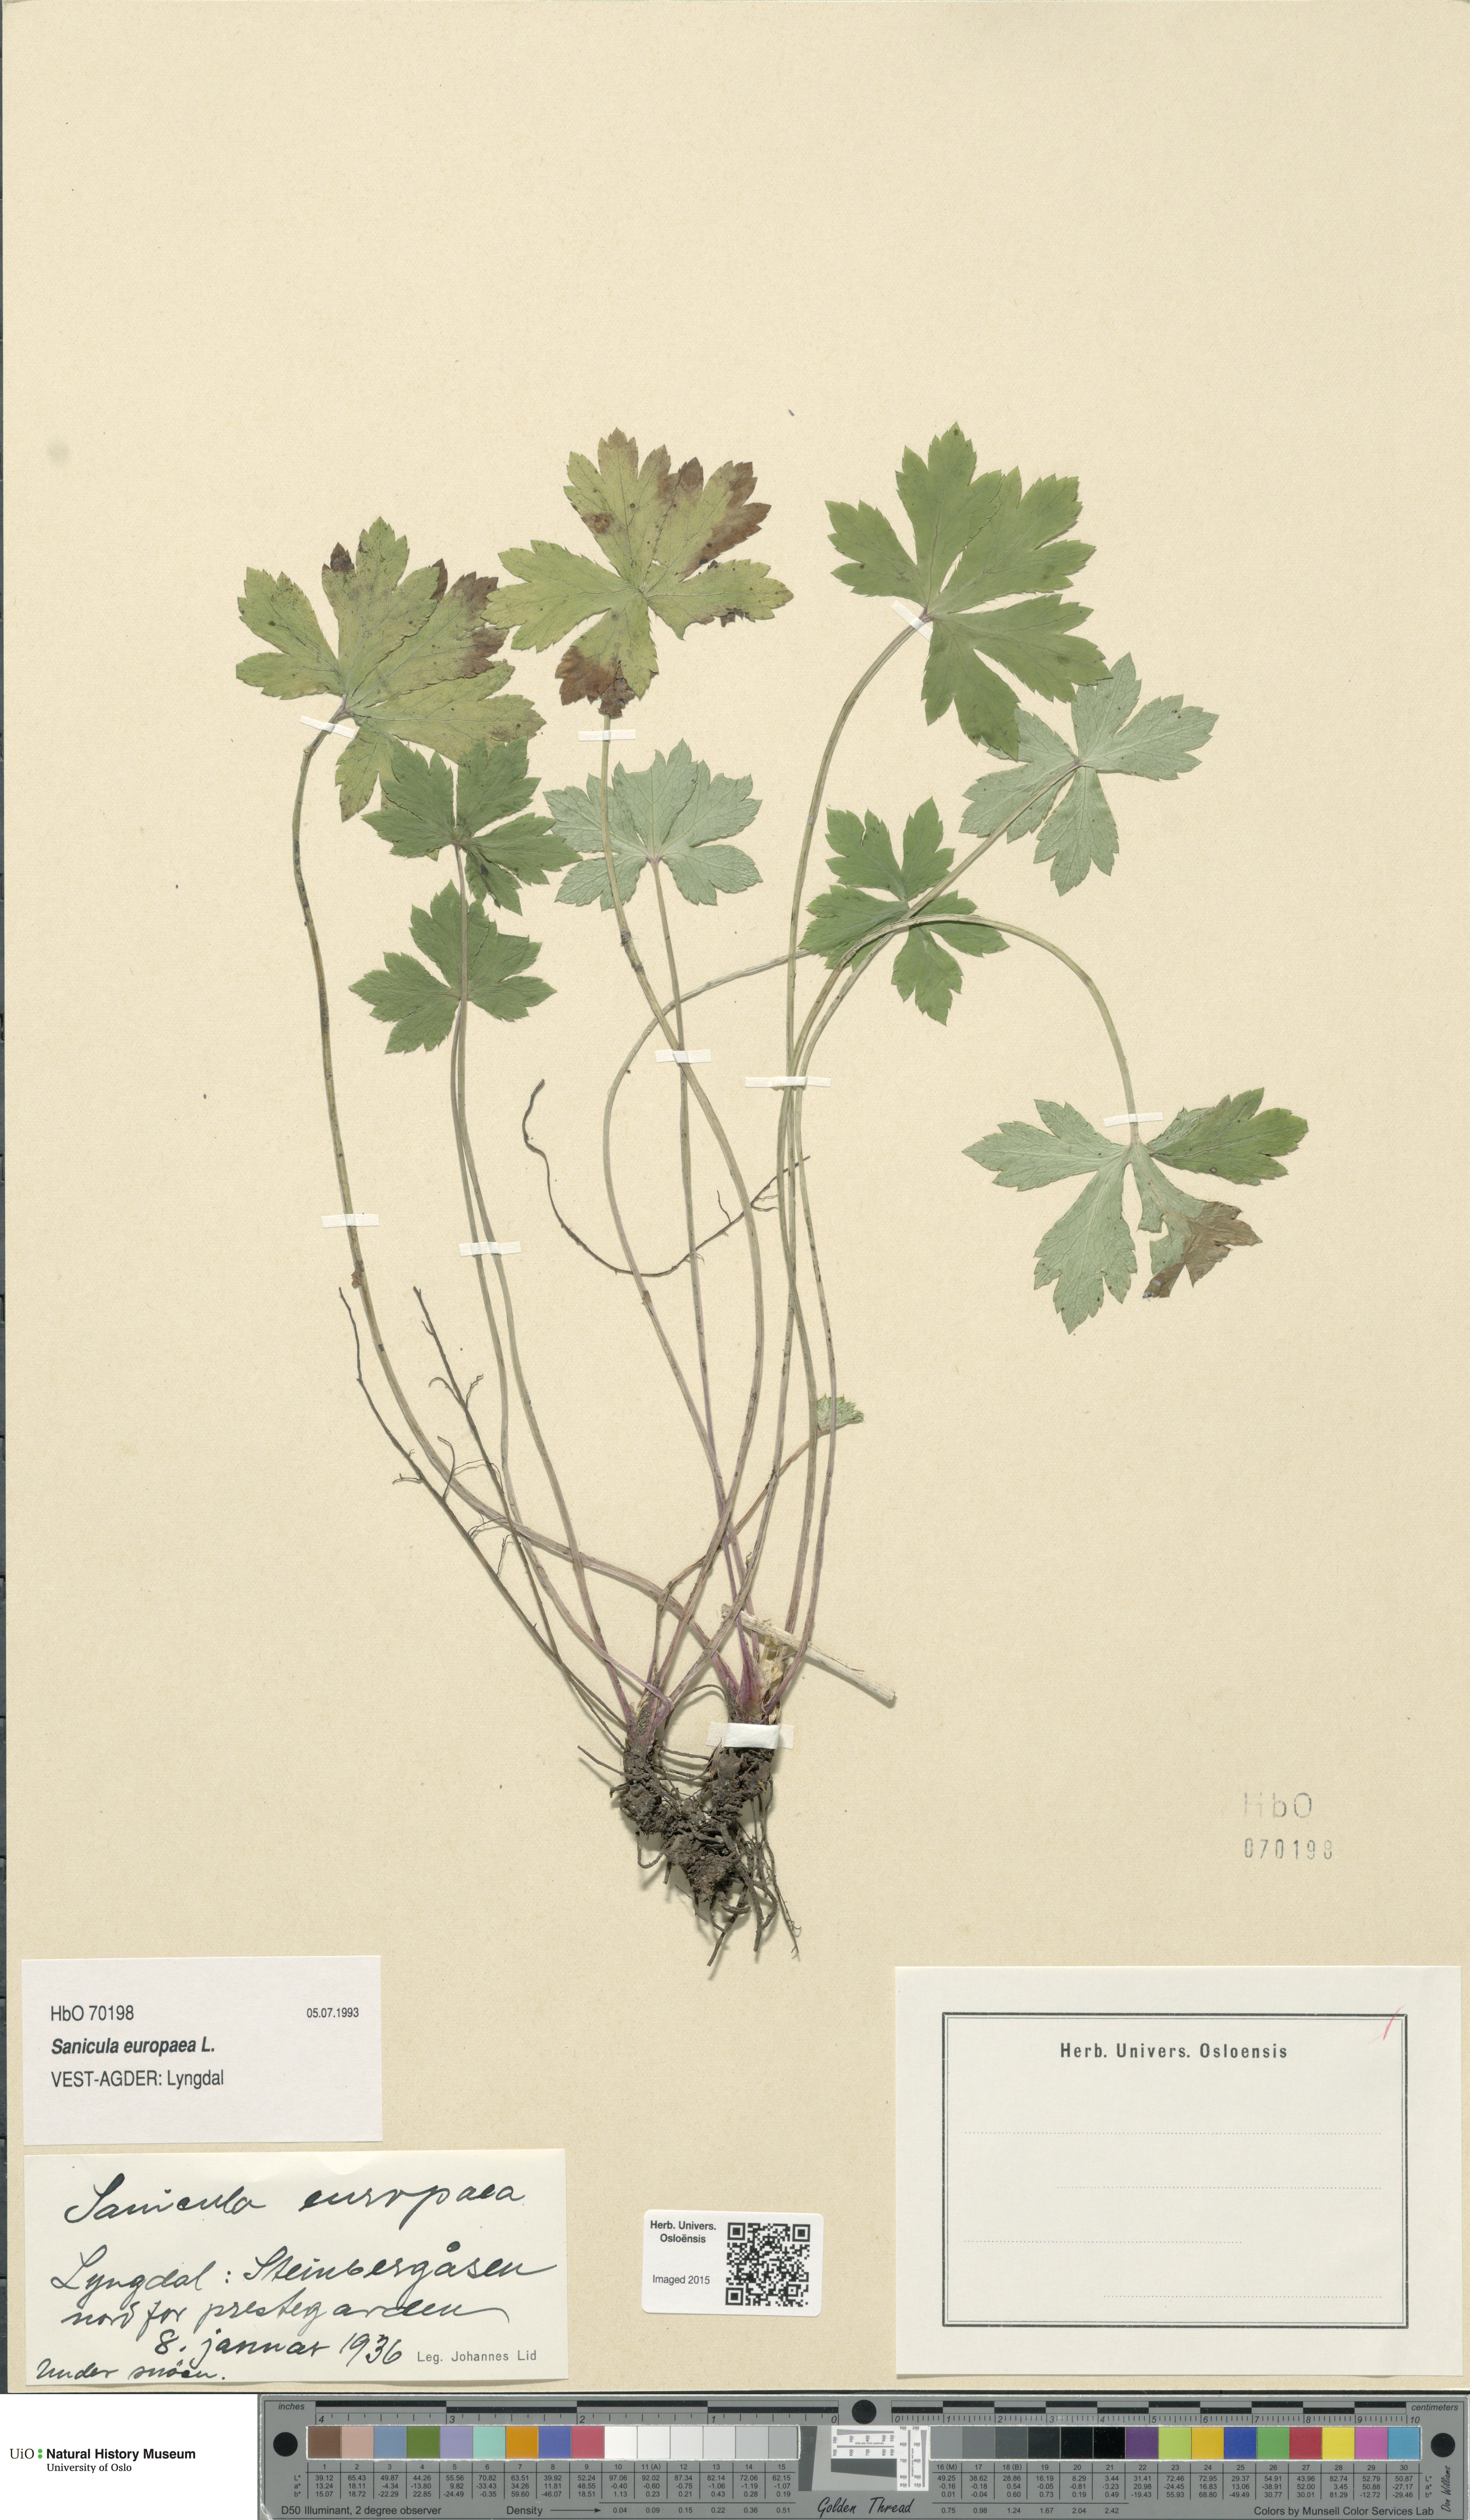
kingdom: Plantae
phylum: Tracheophyta
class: Magnoliopsida
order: Apiales
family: Apiaceae
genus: Sanicula
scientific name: Sanicula europaea
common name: Sanicle
